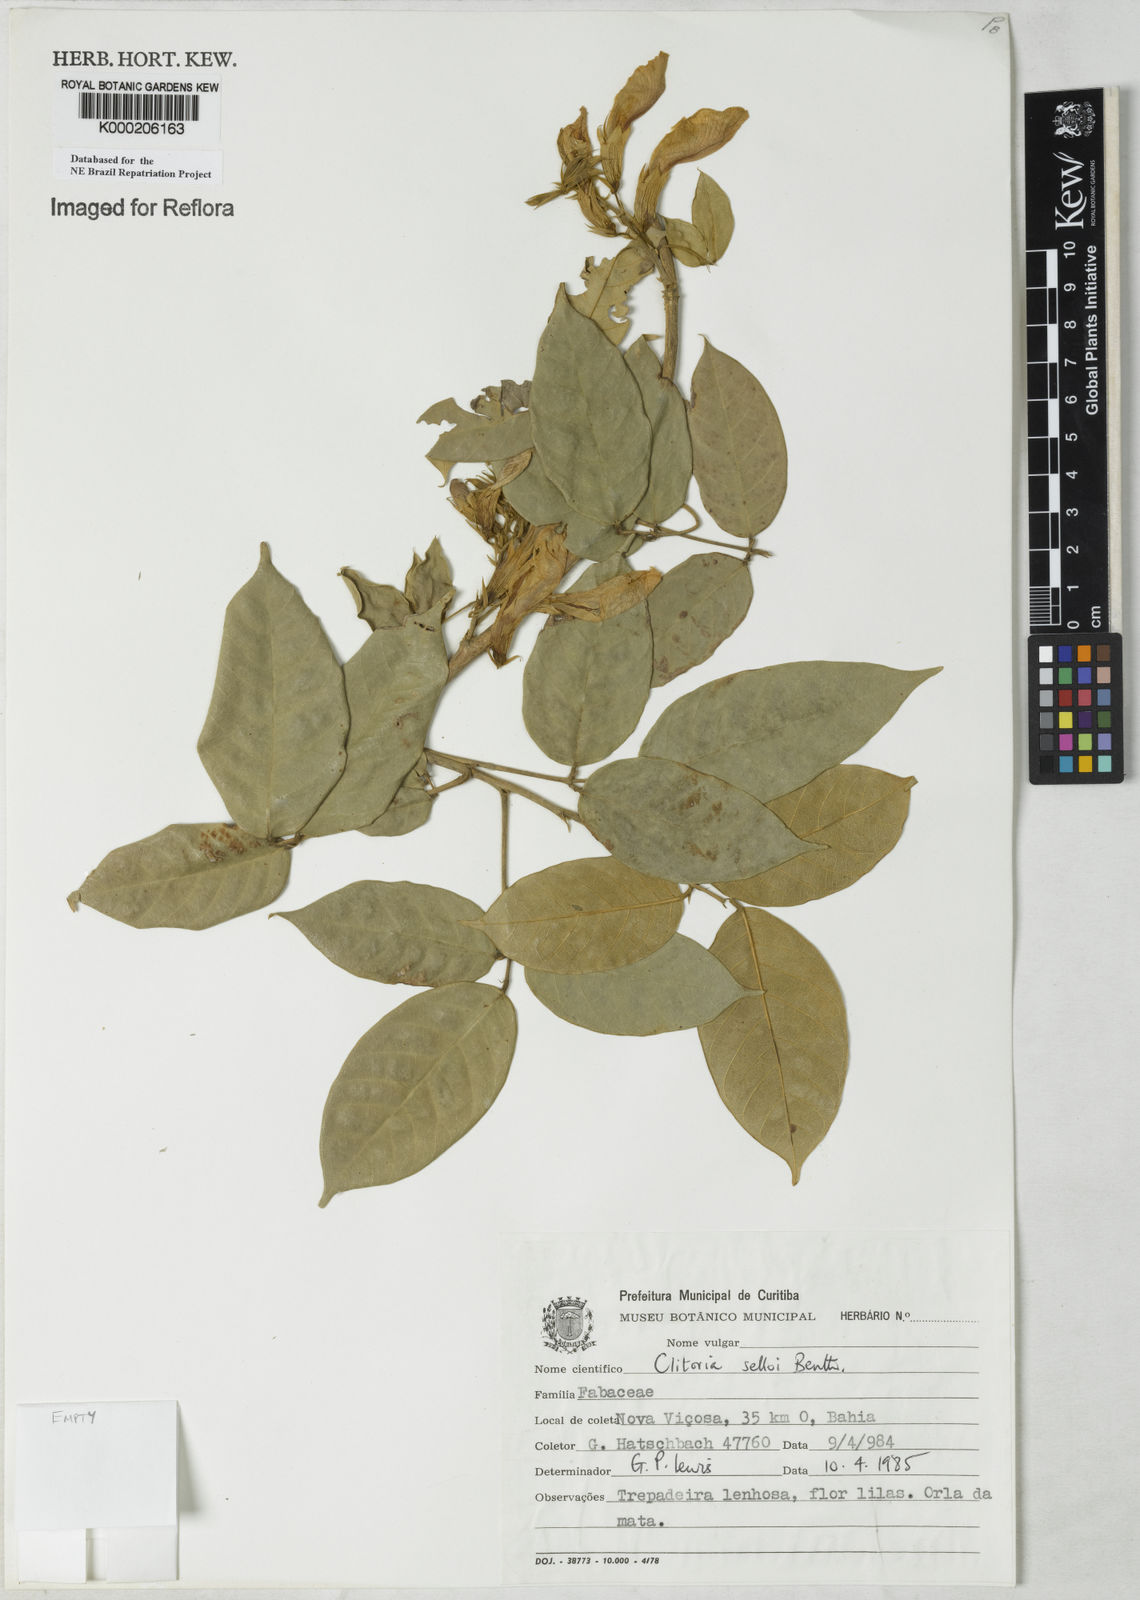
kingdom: Plantae
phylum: Tracheophyta
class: Magnoliopsida
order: Fabales
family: Fabaceae
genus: Clitoria
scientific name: Clitoria selloi
